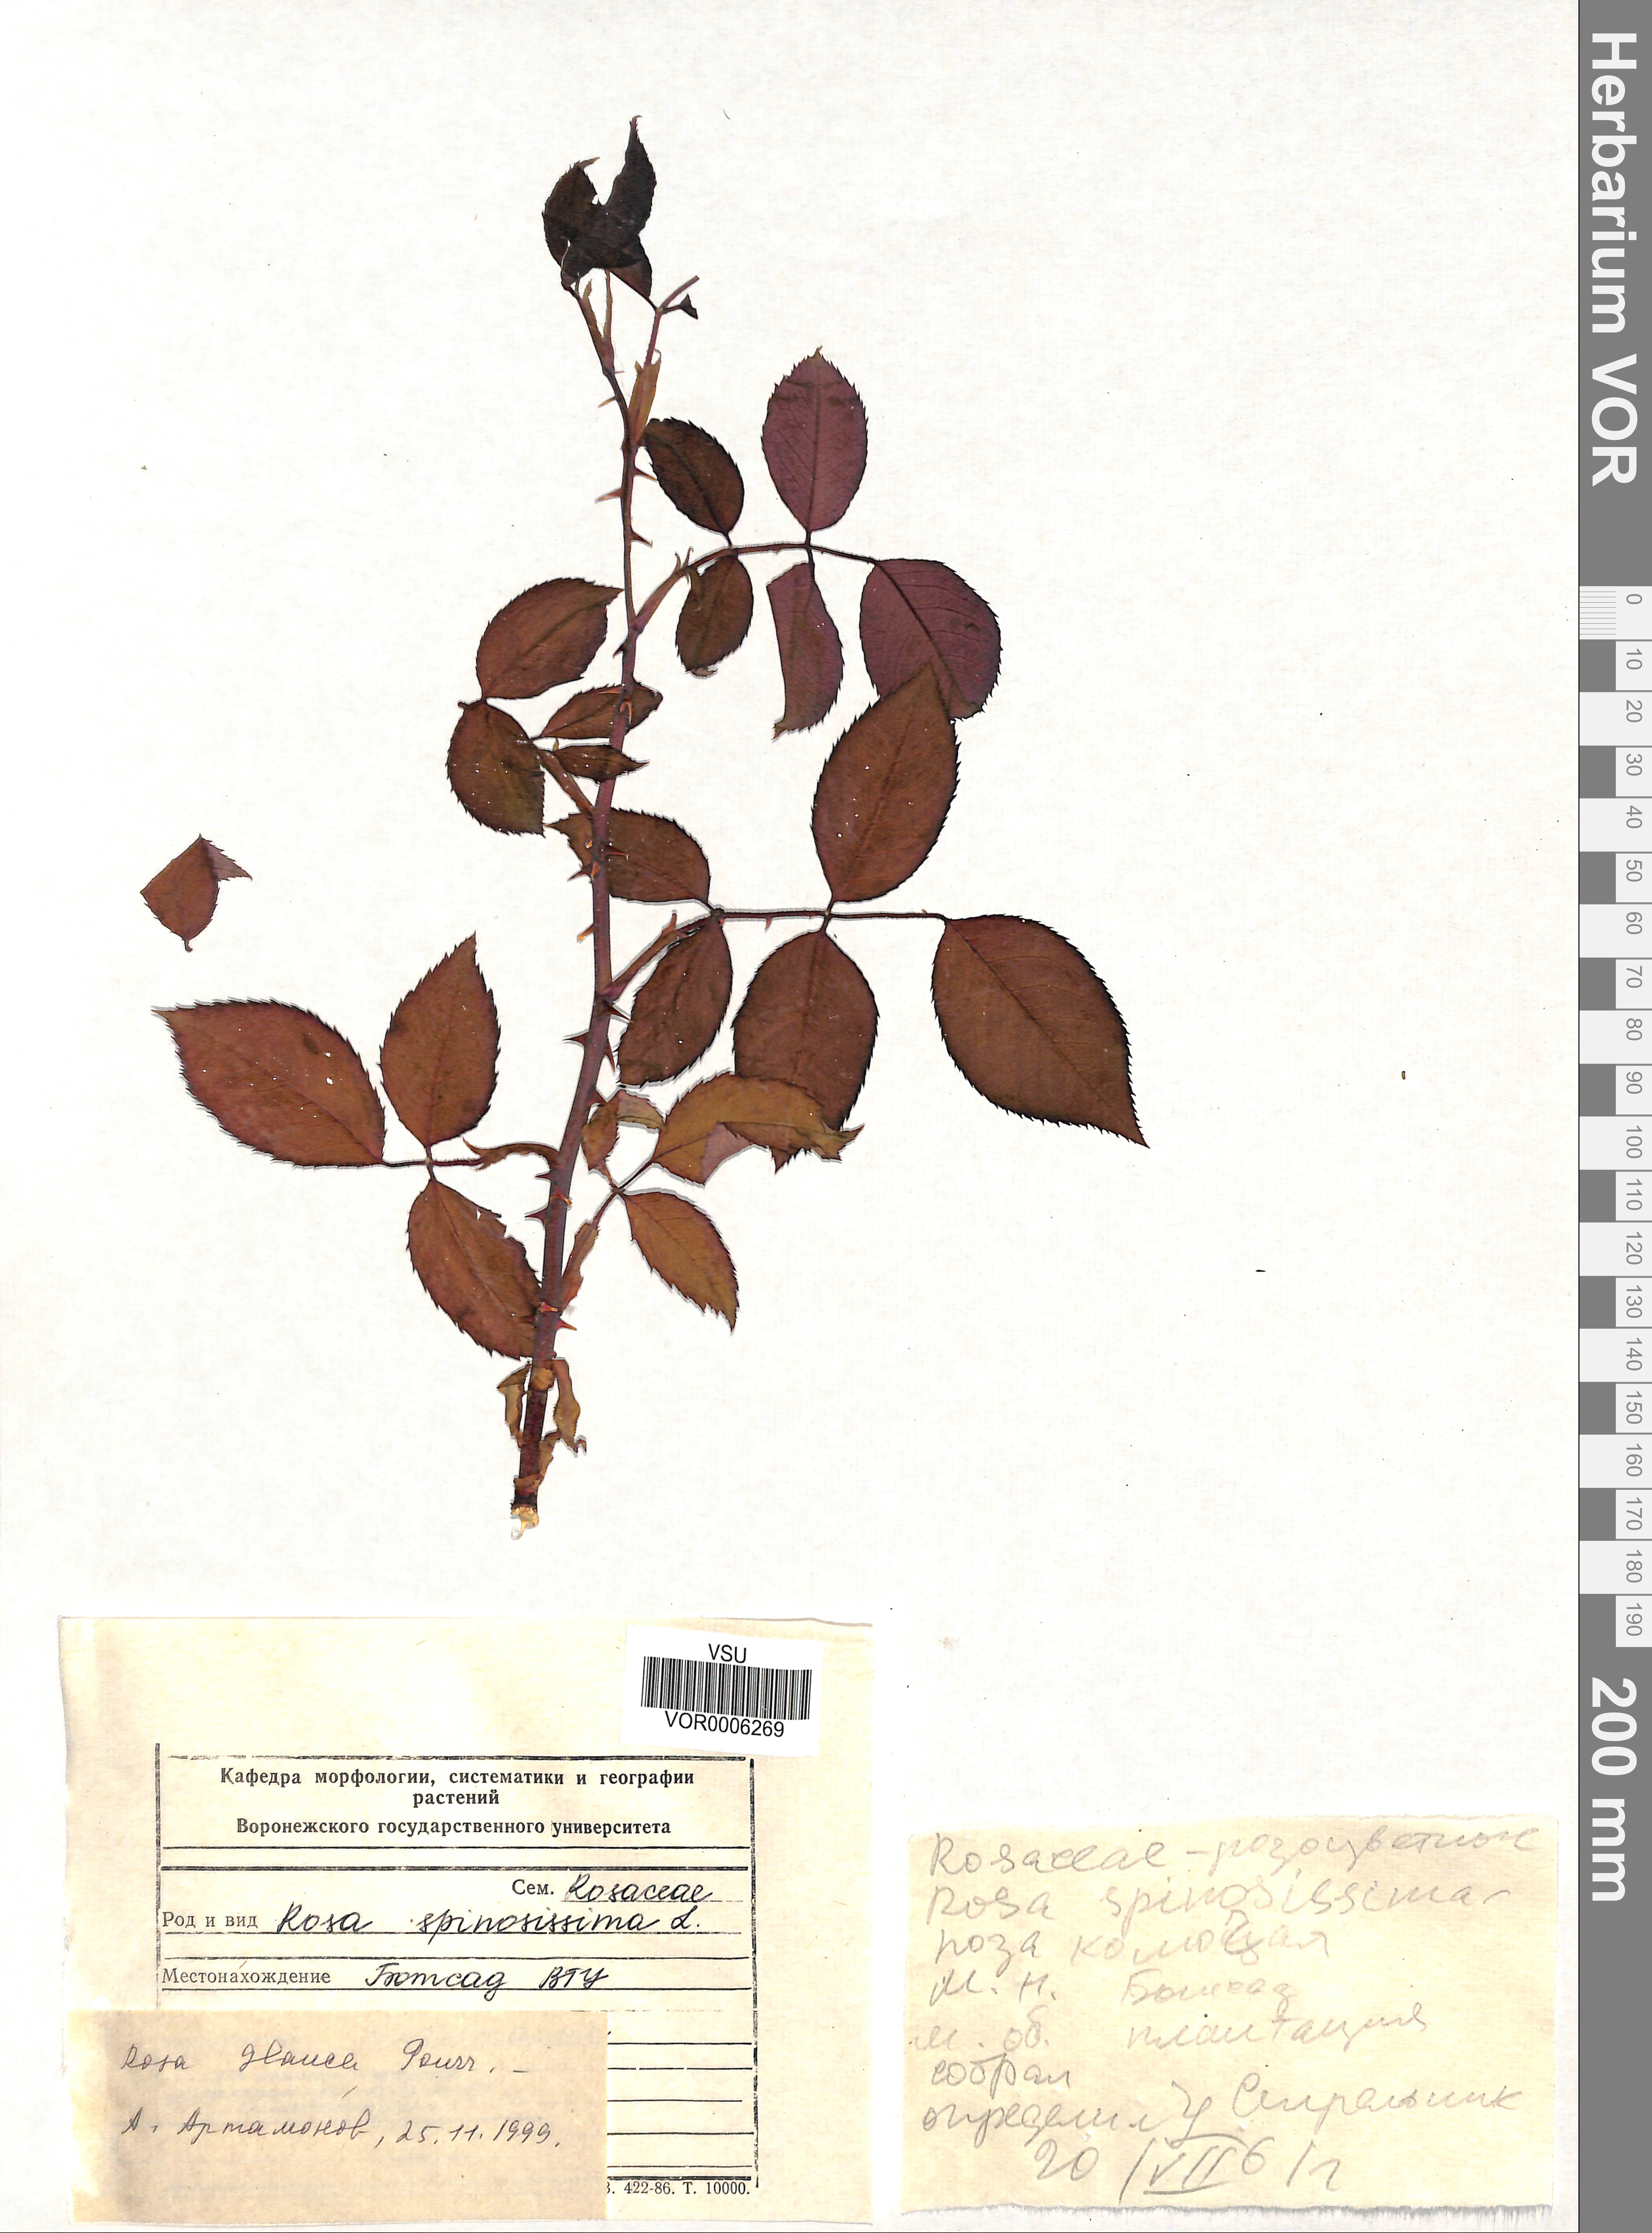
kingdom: Plantae
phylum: Tracheophyta
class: Magnoliopsida
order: Rosales
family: Rosaceae
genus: Rosa
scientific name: Rosa glauca
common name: Redleaf rose
